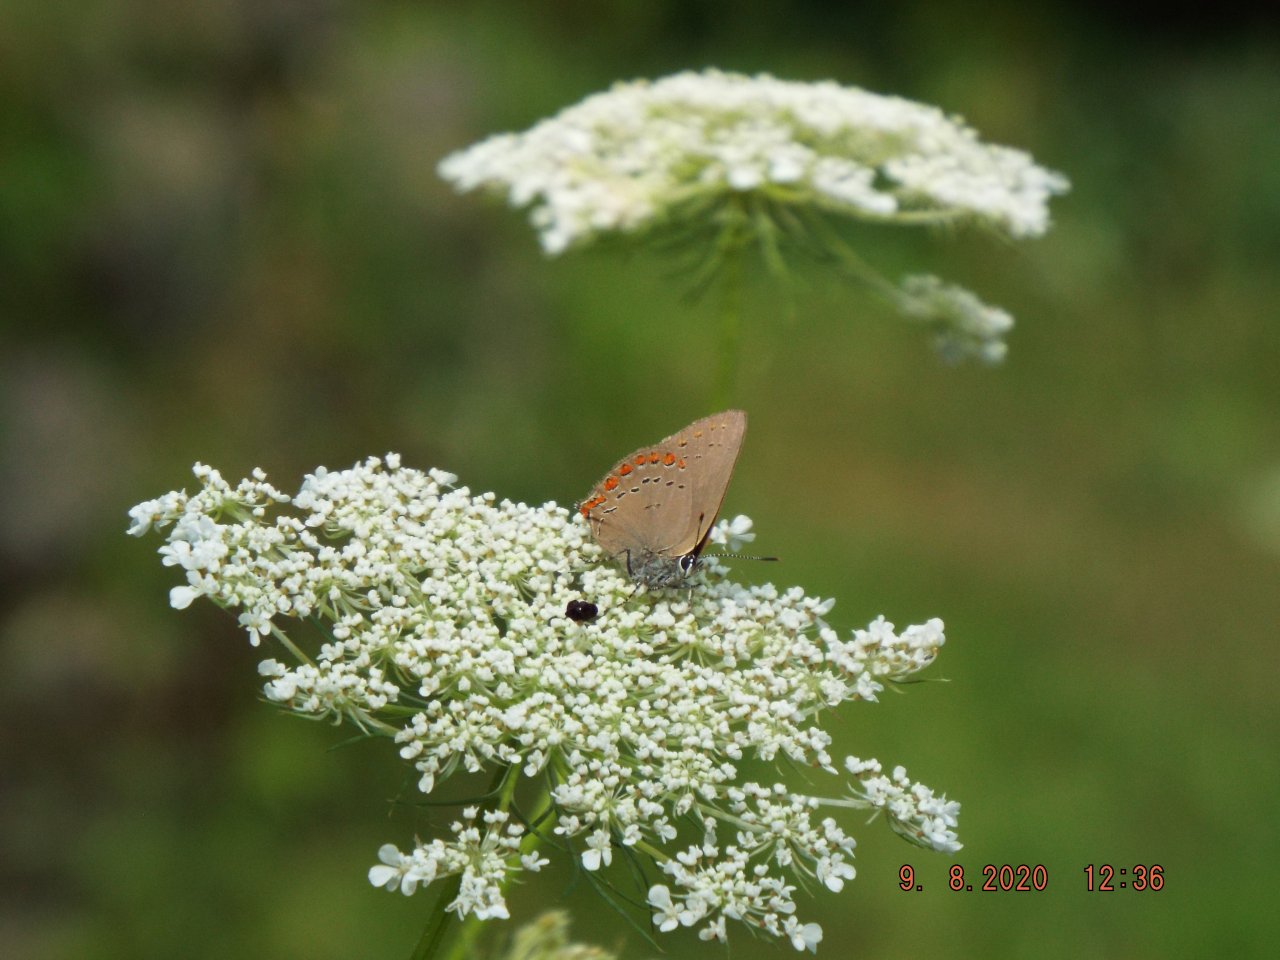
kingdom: Animalia
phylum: Arthropoda
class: Insecta
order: Lepidoptera
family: Lycaenidae
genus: Harkenclenus
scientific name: Harkenclenus titus
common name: Coral Hairstreak
